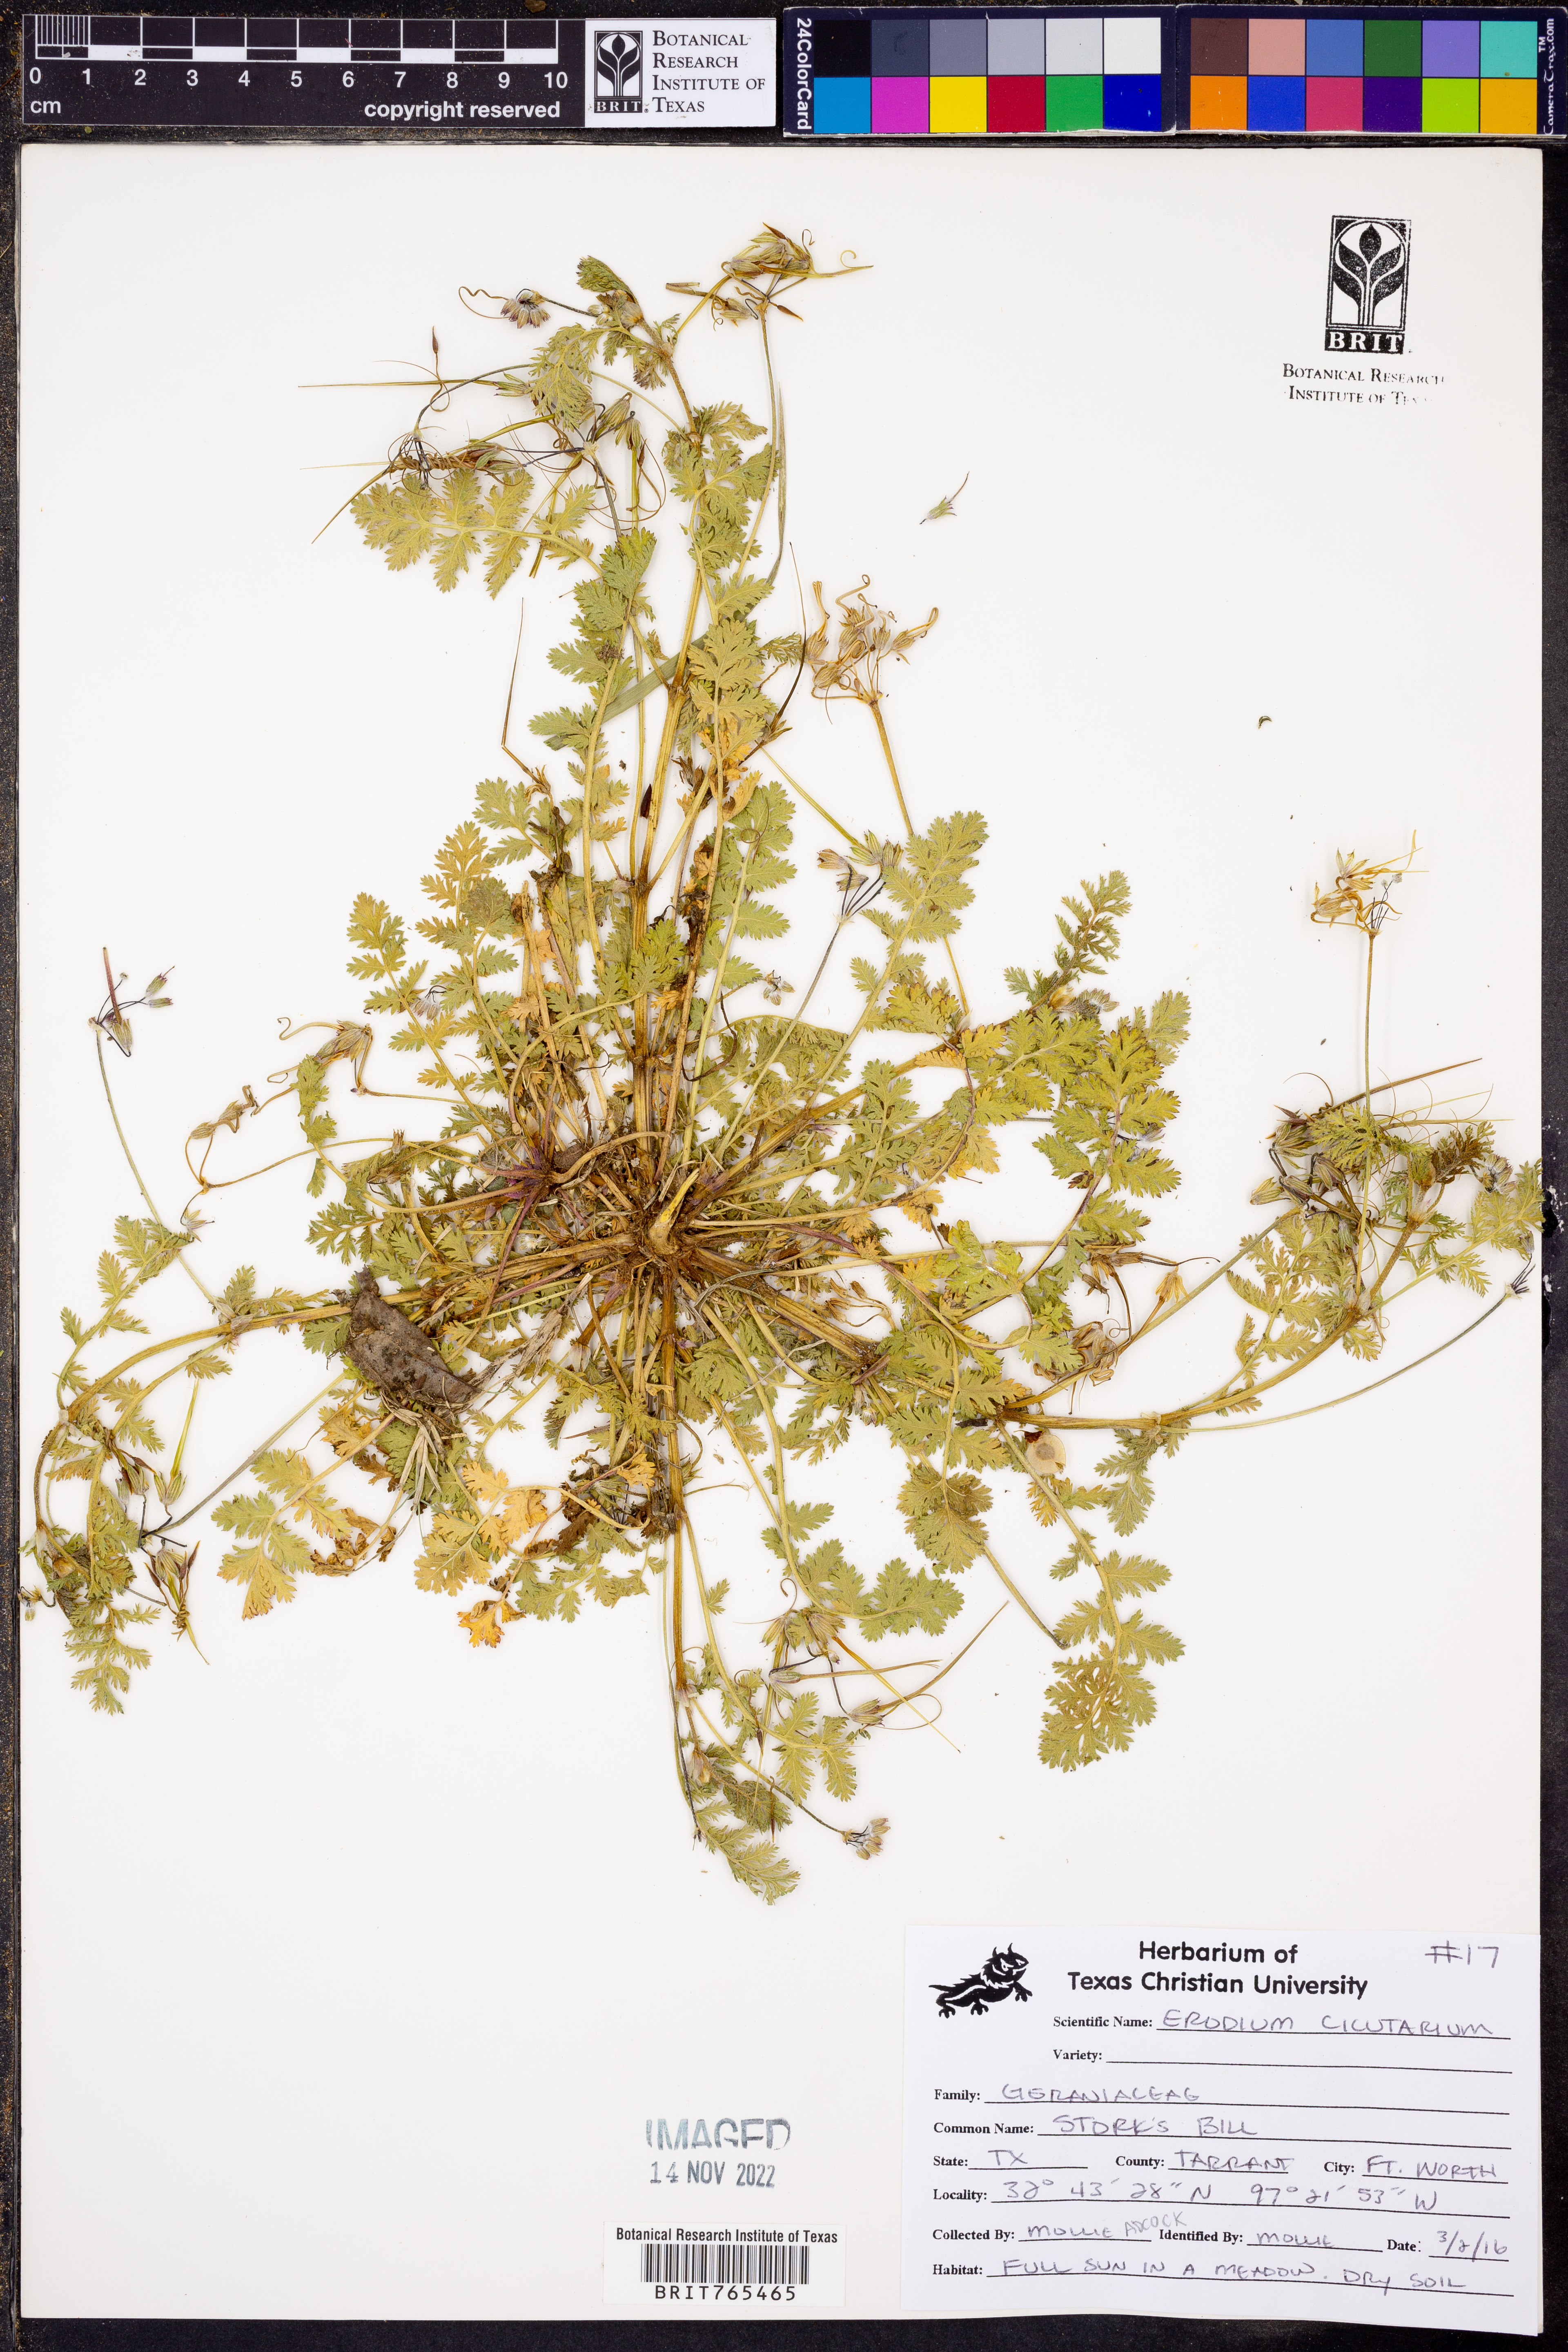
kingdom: Plantae
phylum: Tracheophyta
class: Magnoliopsida
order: Geraniales
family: Geraniaceae
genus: Erodium
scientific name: Erodium cicutarium
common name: Common stork's-bill
